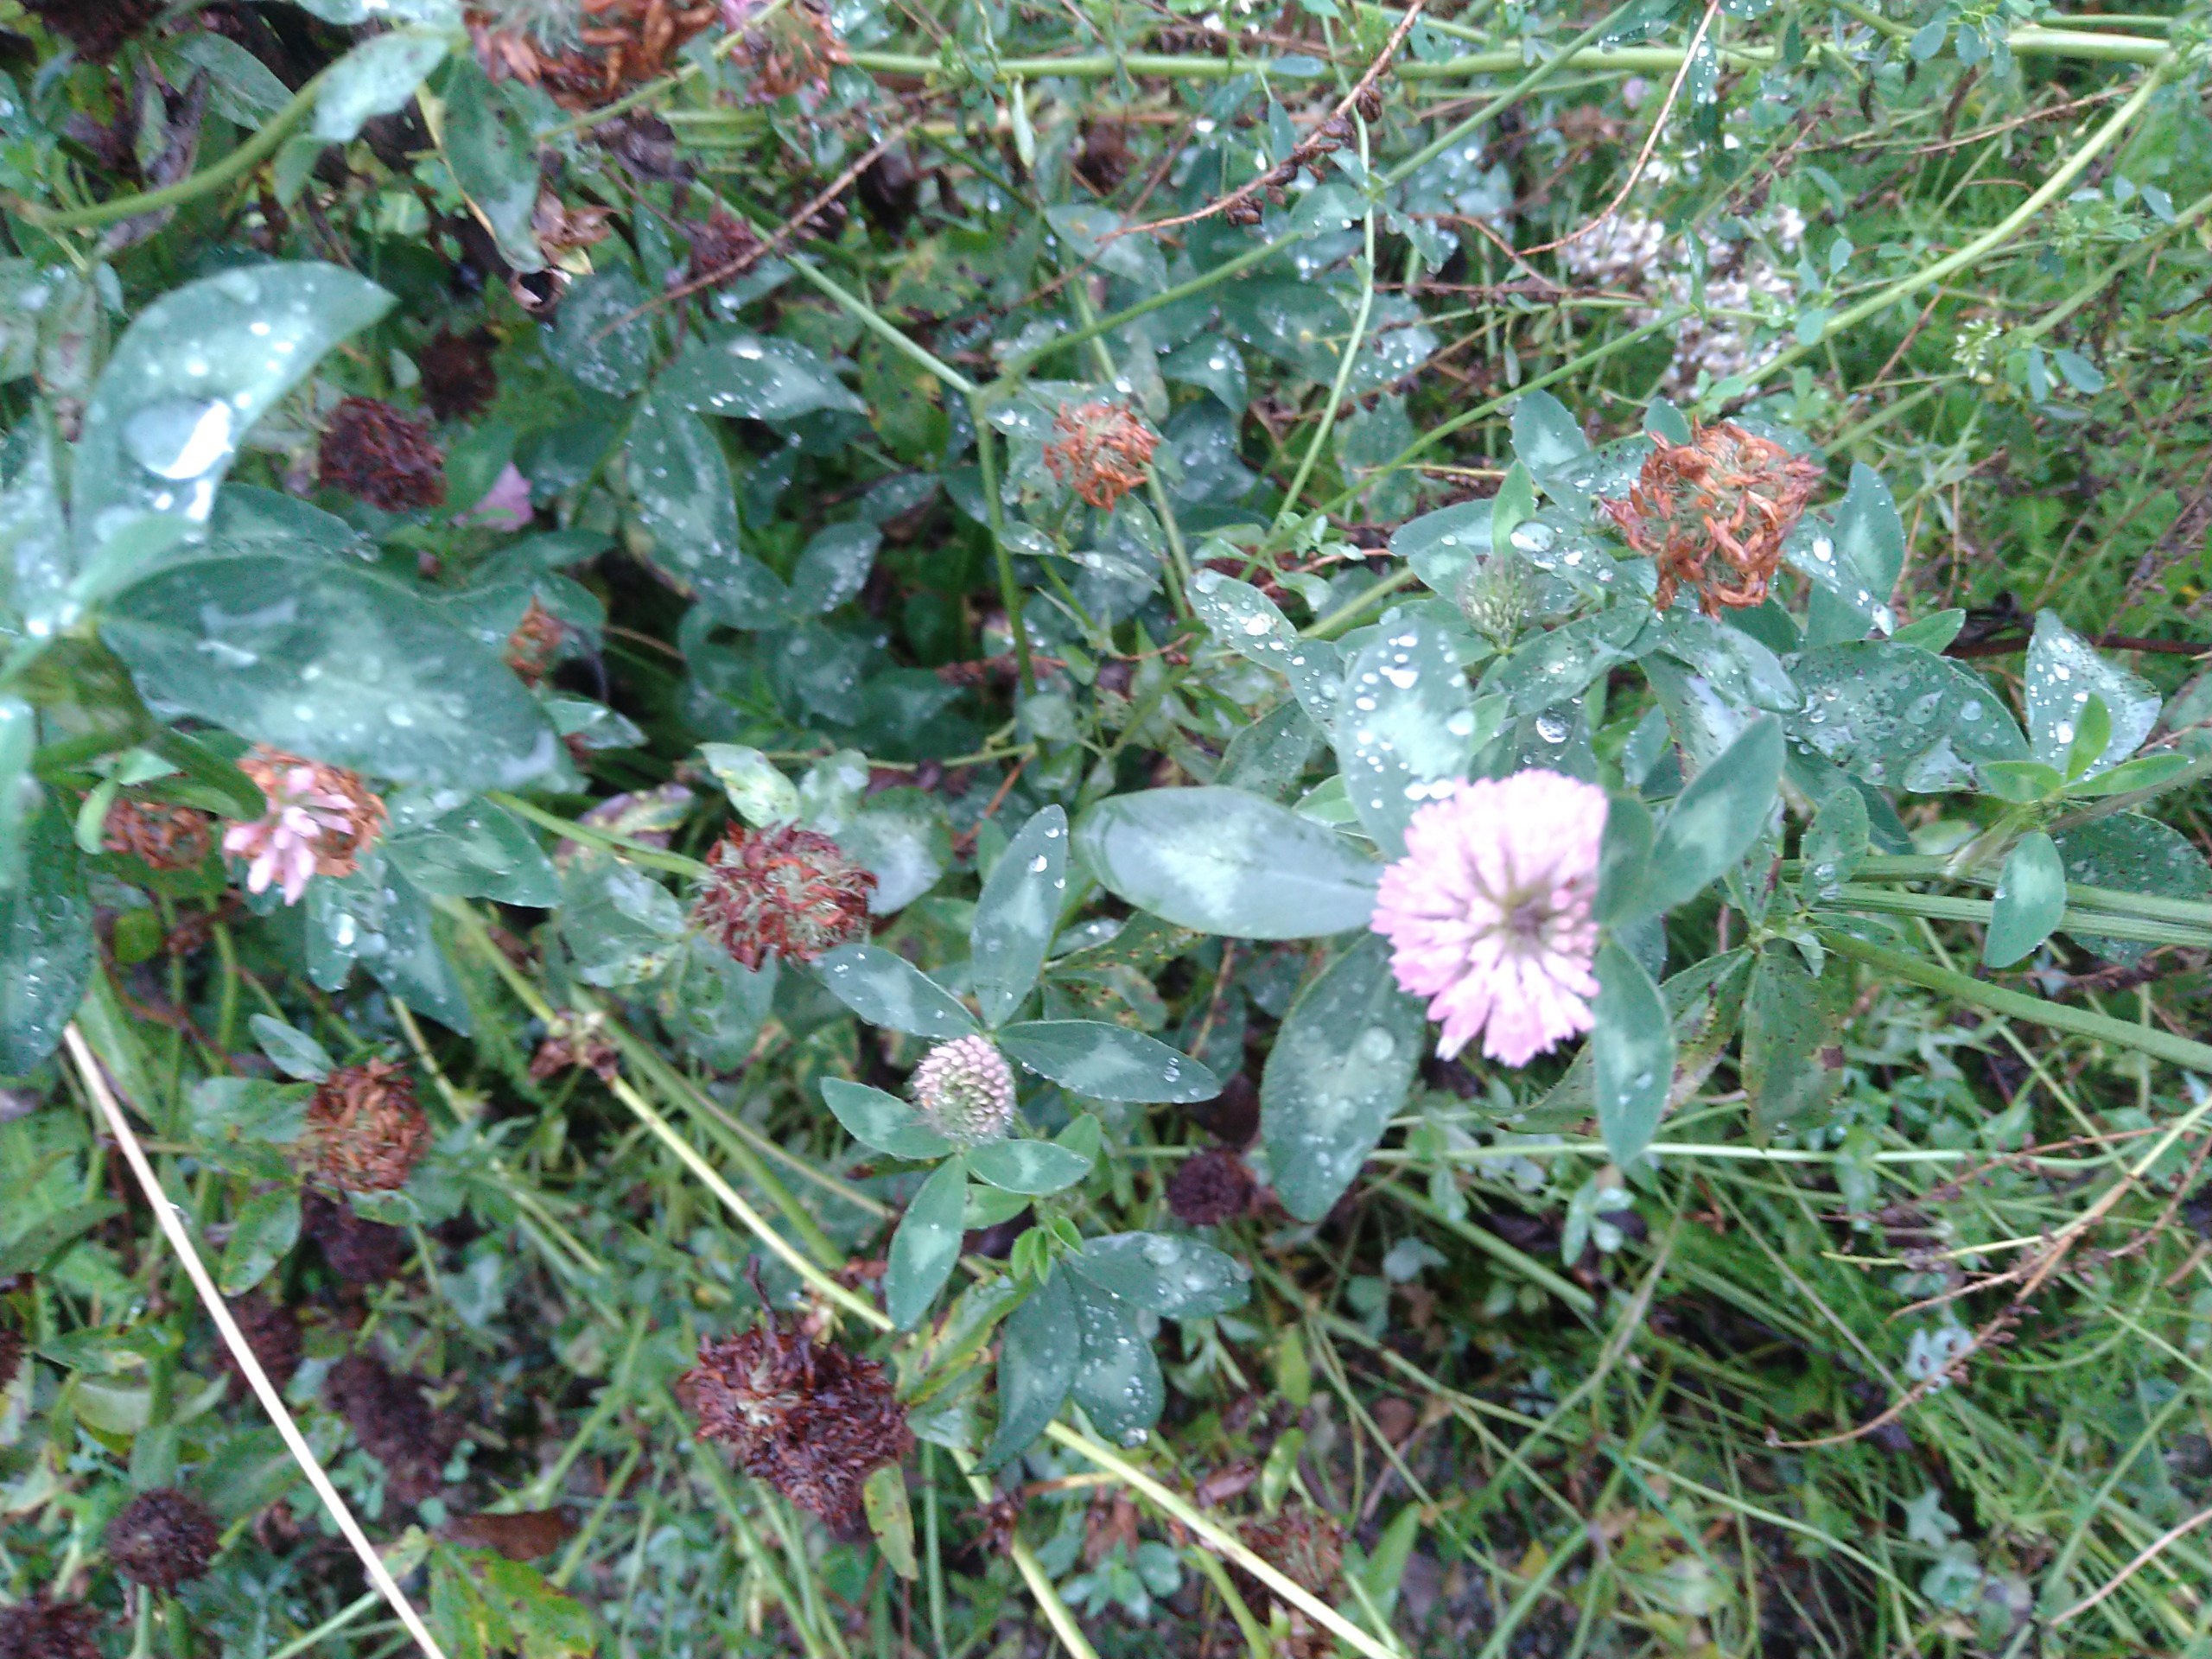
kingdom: Plantae
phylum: Tracheophyta
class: Magnoliopsida
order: Fabales
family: Fabaceae
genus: Trifolium
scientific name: Trifolium pratense
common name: Rød-kløver
